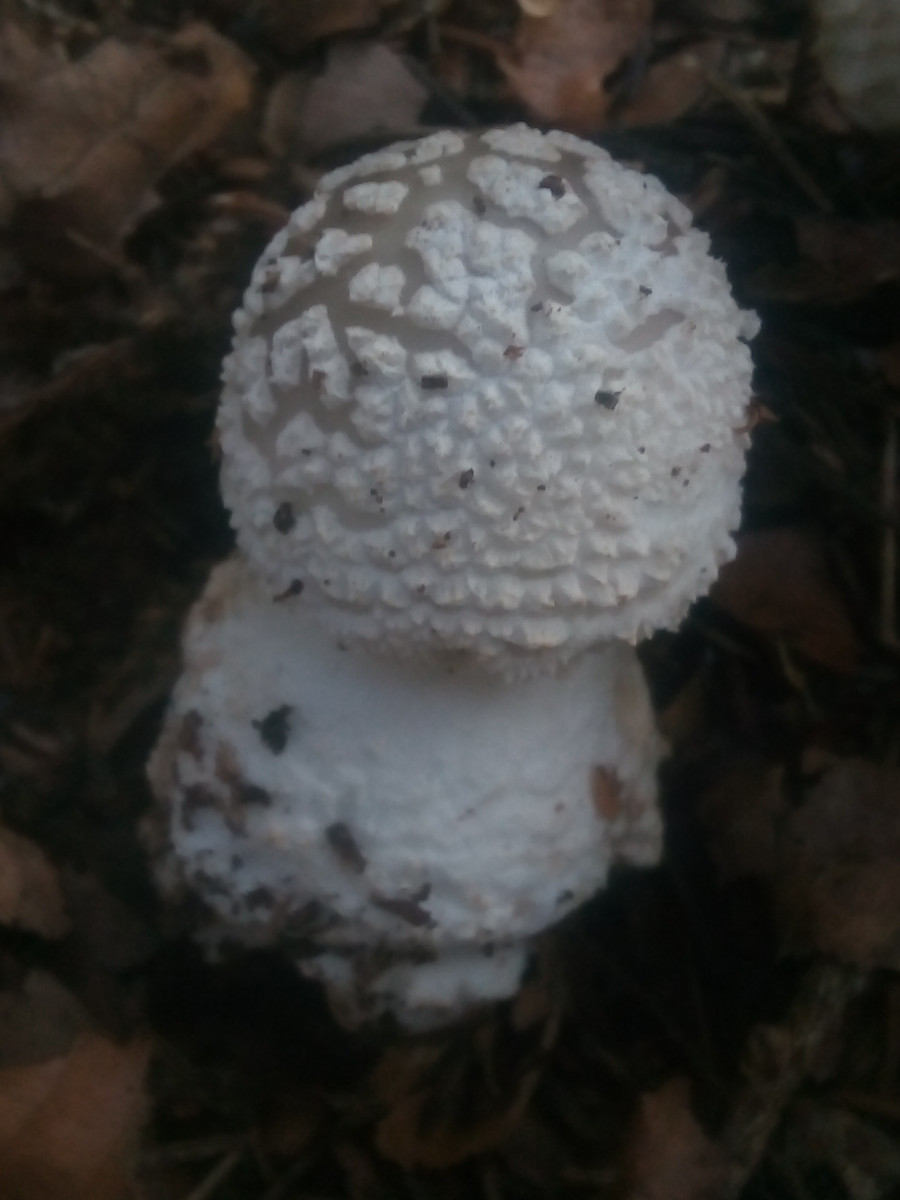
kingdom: Fungi
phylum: Basidiomycota
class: Agaricomycetes
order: Agaricales
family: Amanitaceae
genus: Amanita
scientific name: Amanita
